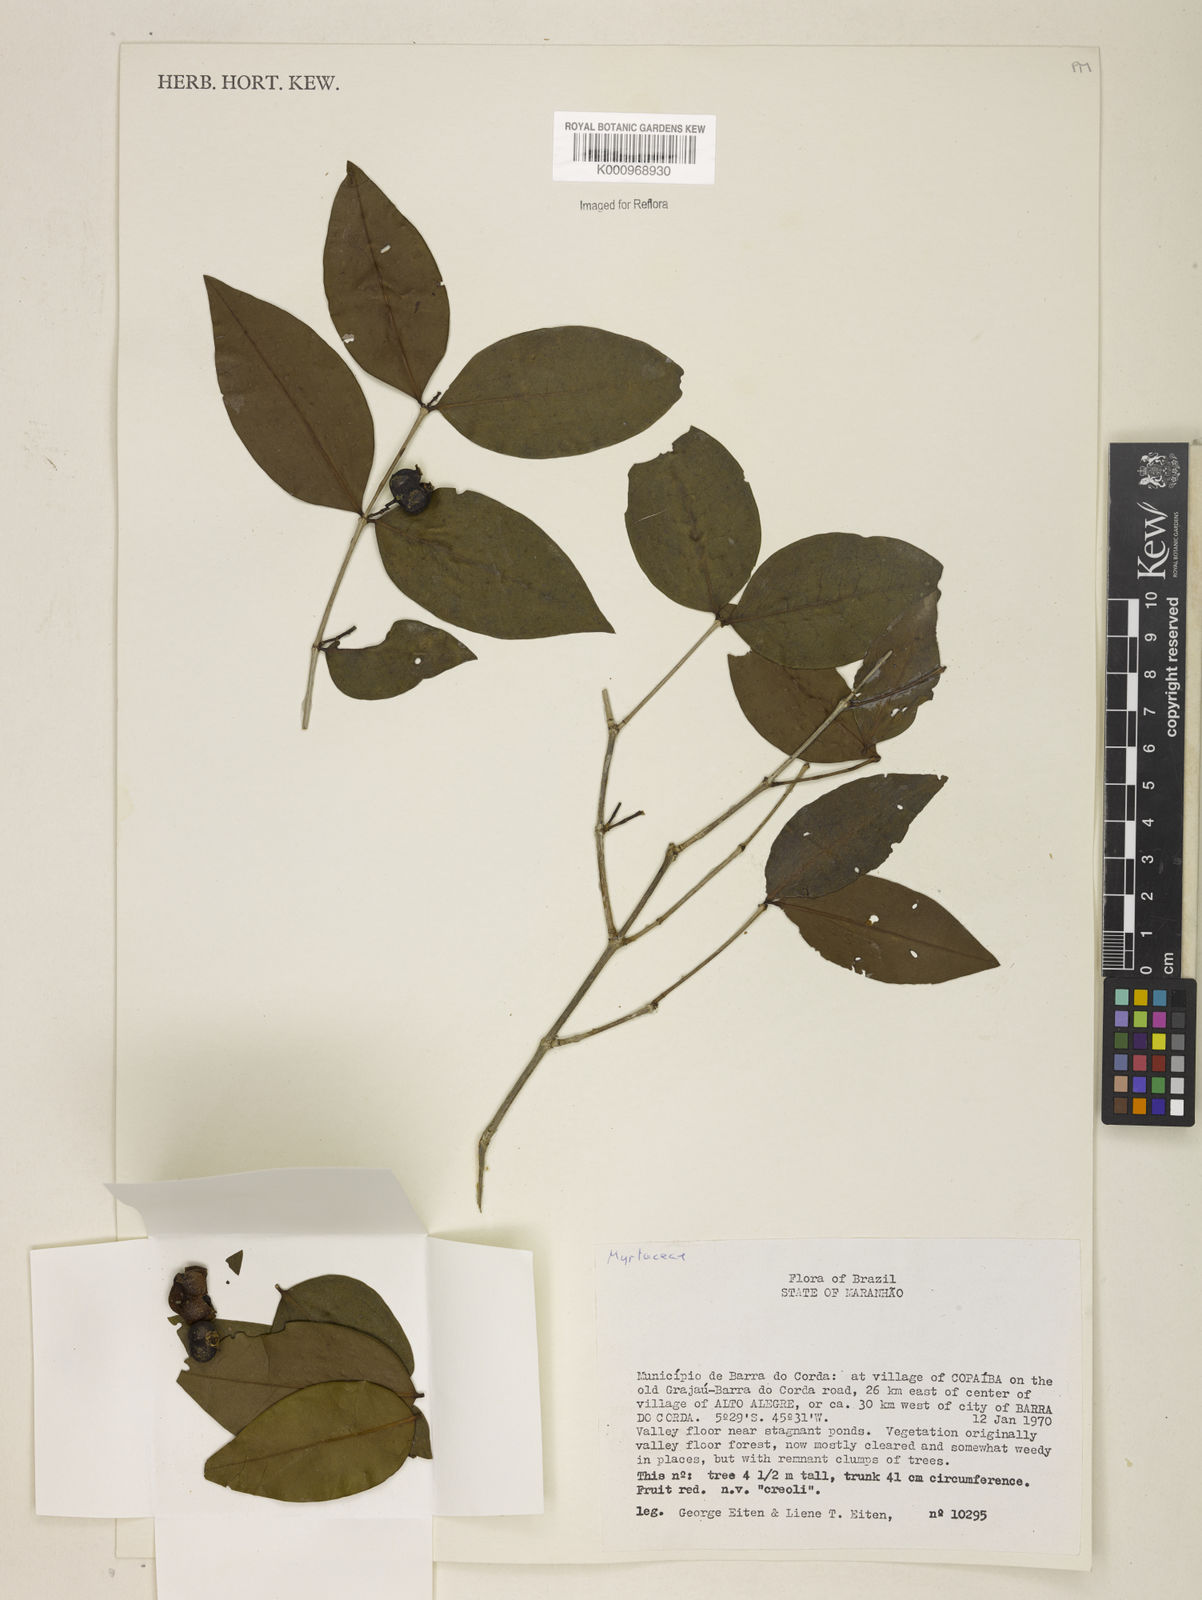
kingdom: Plantae
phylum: Tracheophyta
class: Magnoliopsida
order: Myrtales
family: Melastomataceae
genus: Mouriri
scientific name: Mouriri
